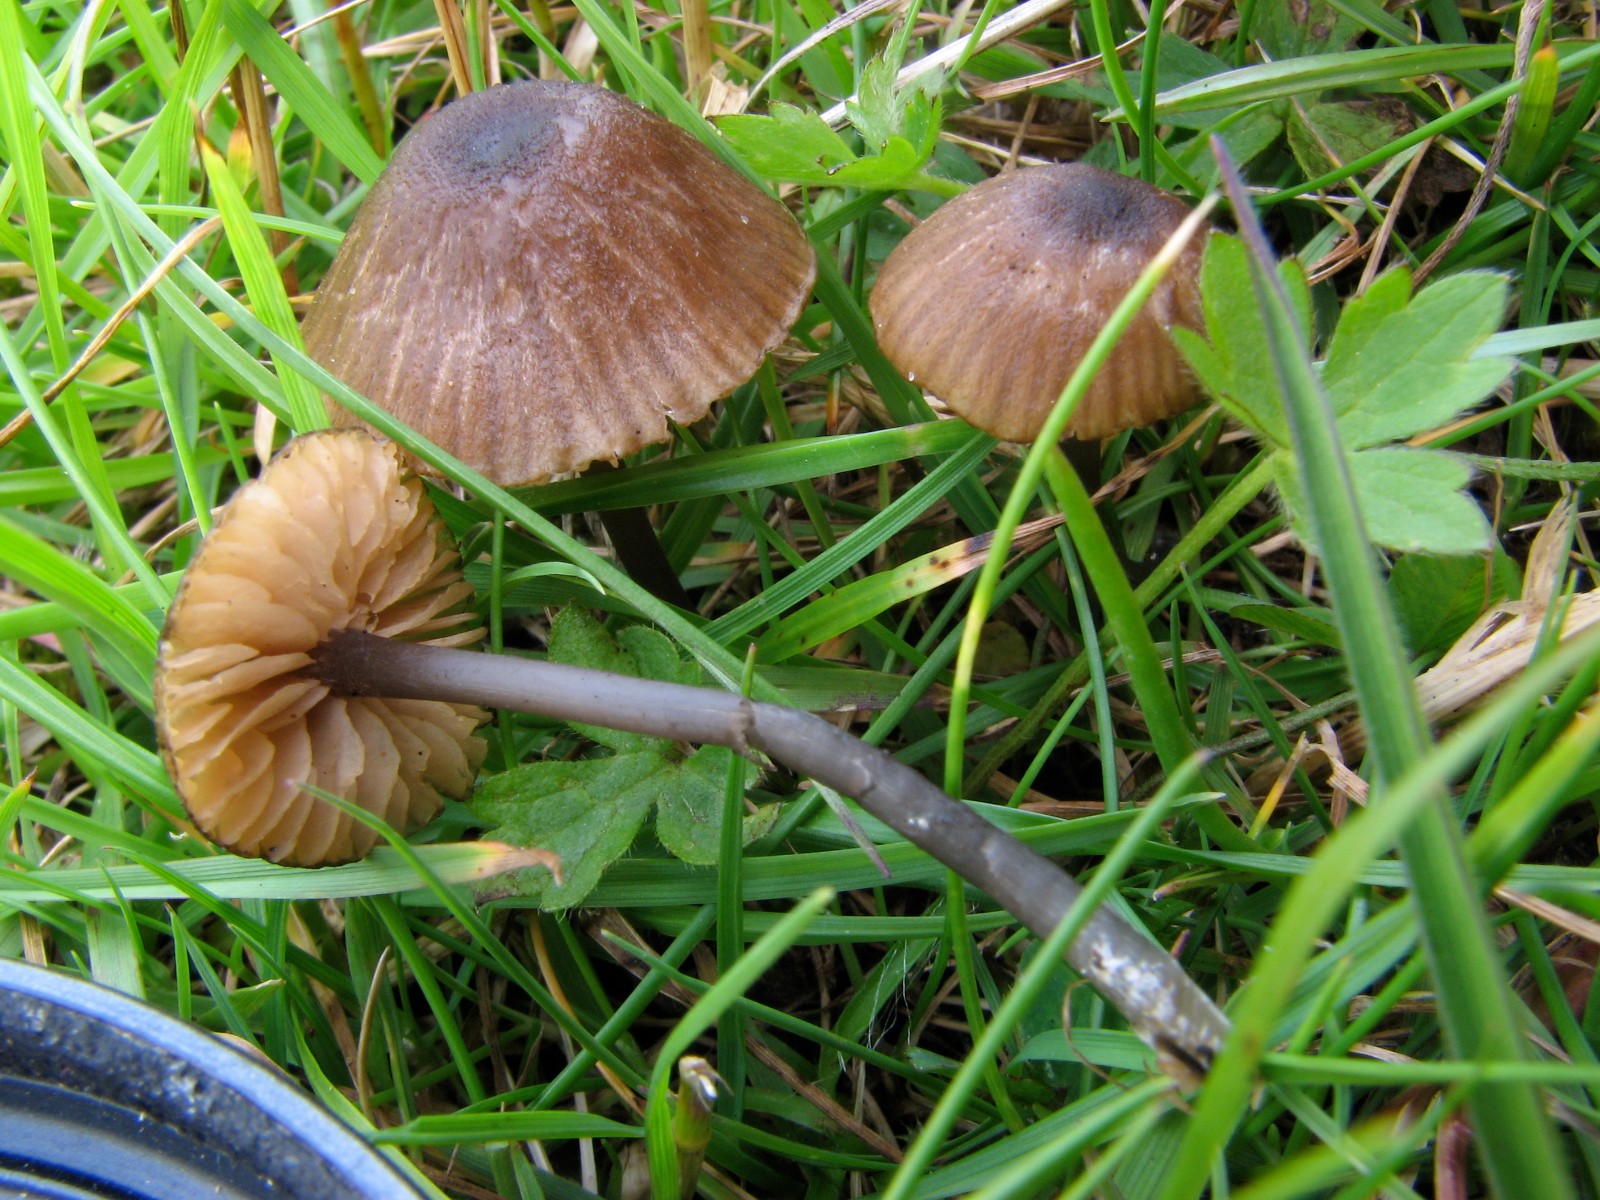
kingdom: Fungi
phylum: Basidiomycota
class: Agaricomycetes
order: Agaricales
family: Entolomataceae
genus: Entoloma
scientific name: Entoloma poliopus
